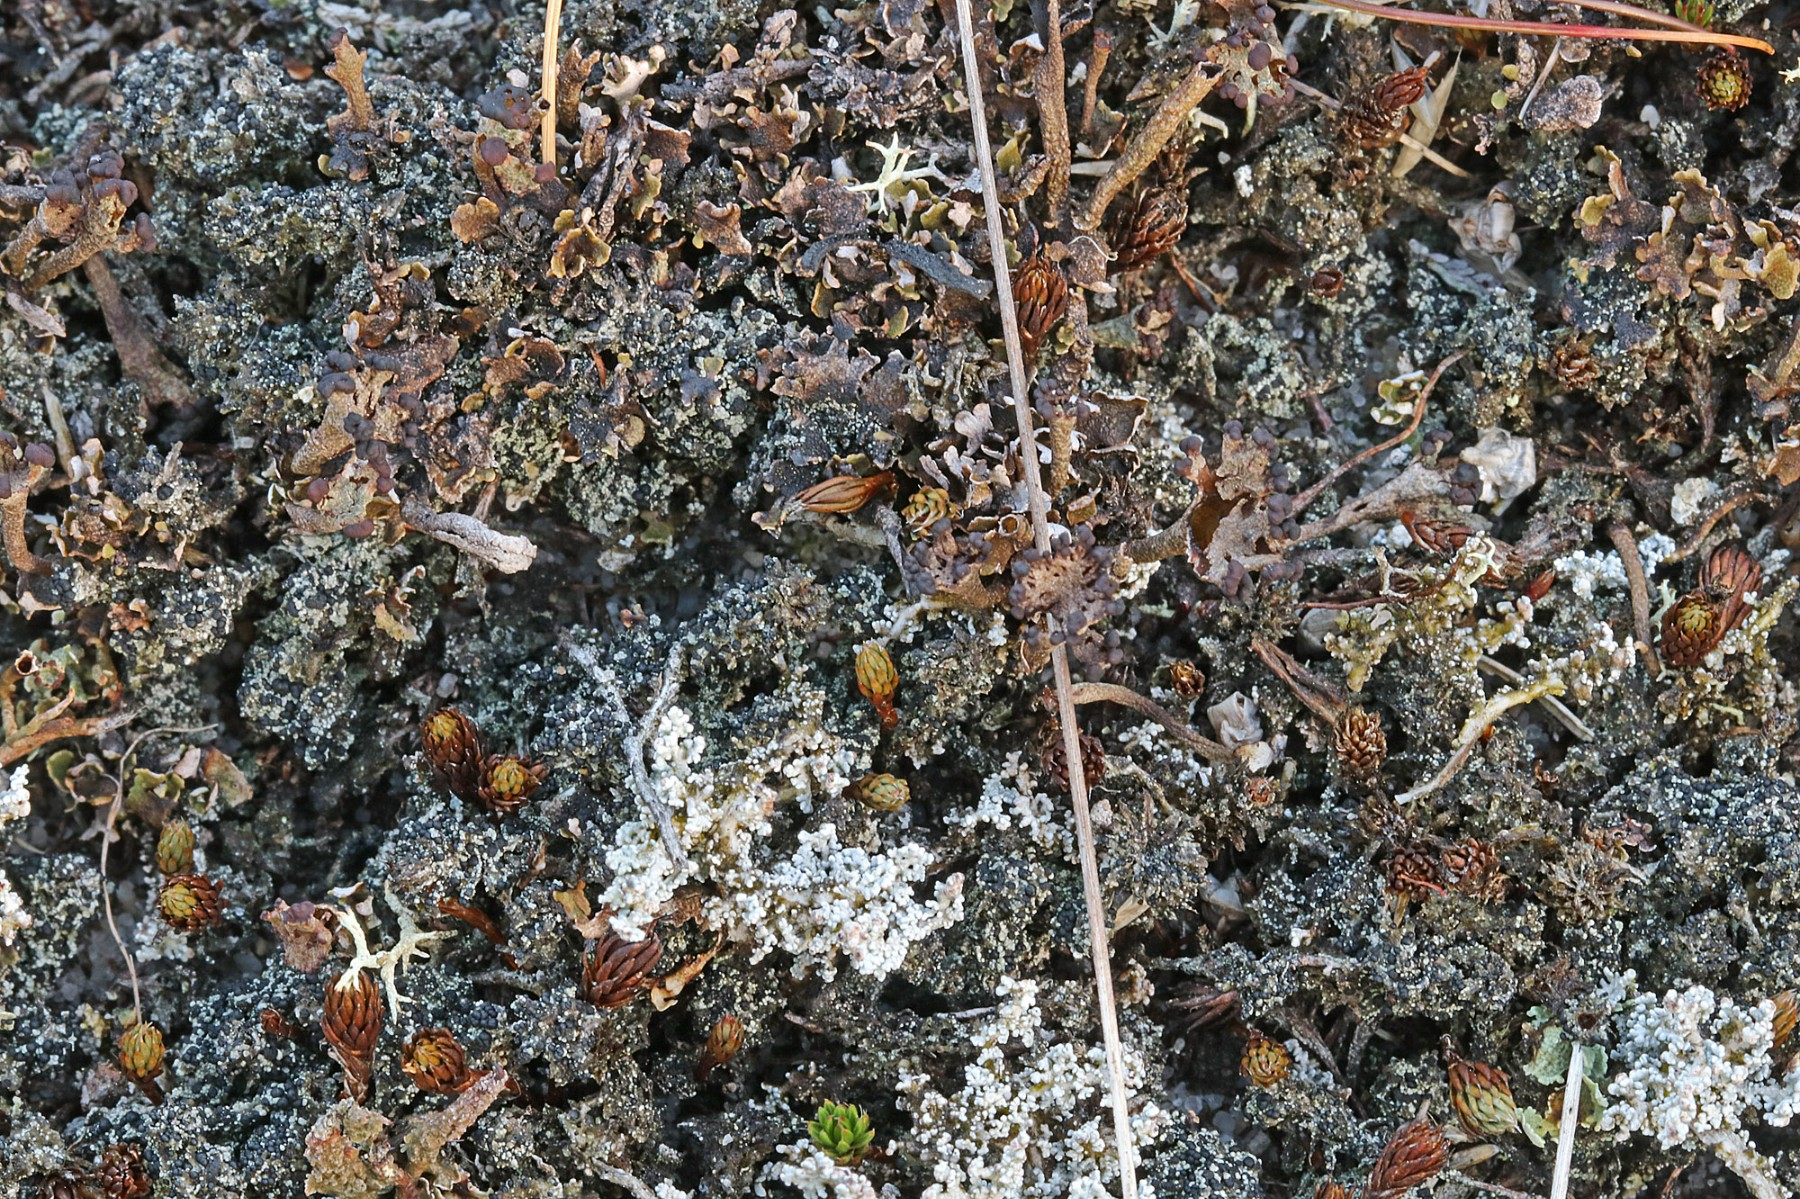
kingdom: Fungi
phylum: Ascomycota
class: Lecanoromycetes
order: Lecanorales
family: Byssolomataceae
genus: Micarea
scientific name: Micarea lignaria
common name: tørve-knaplav
